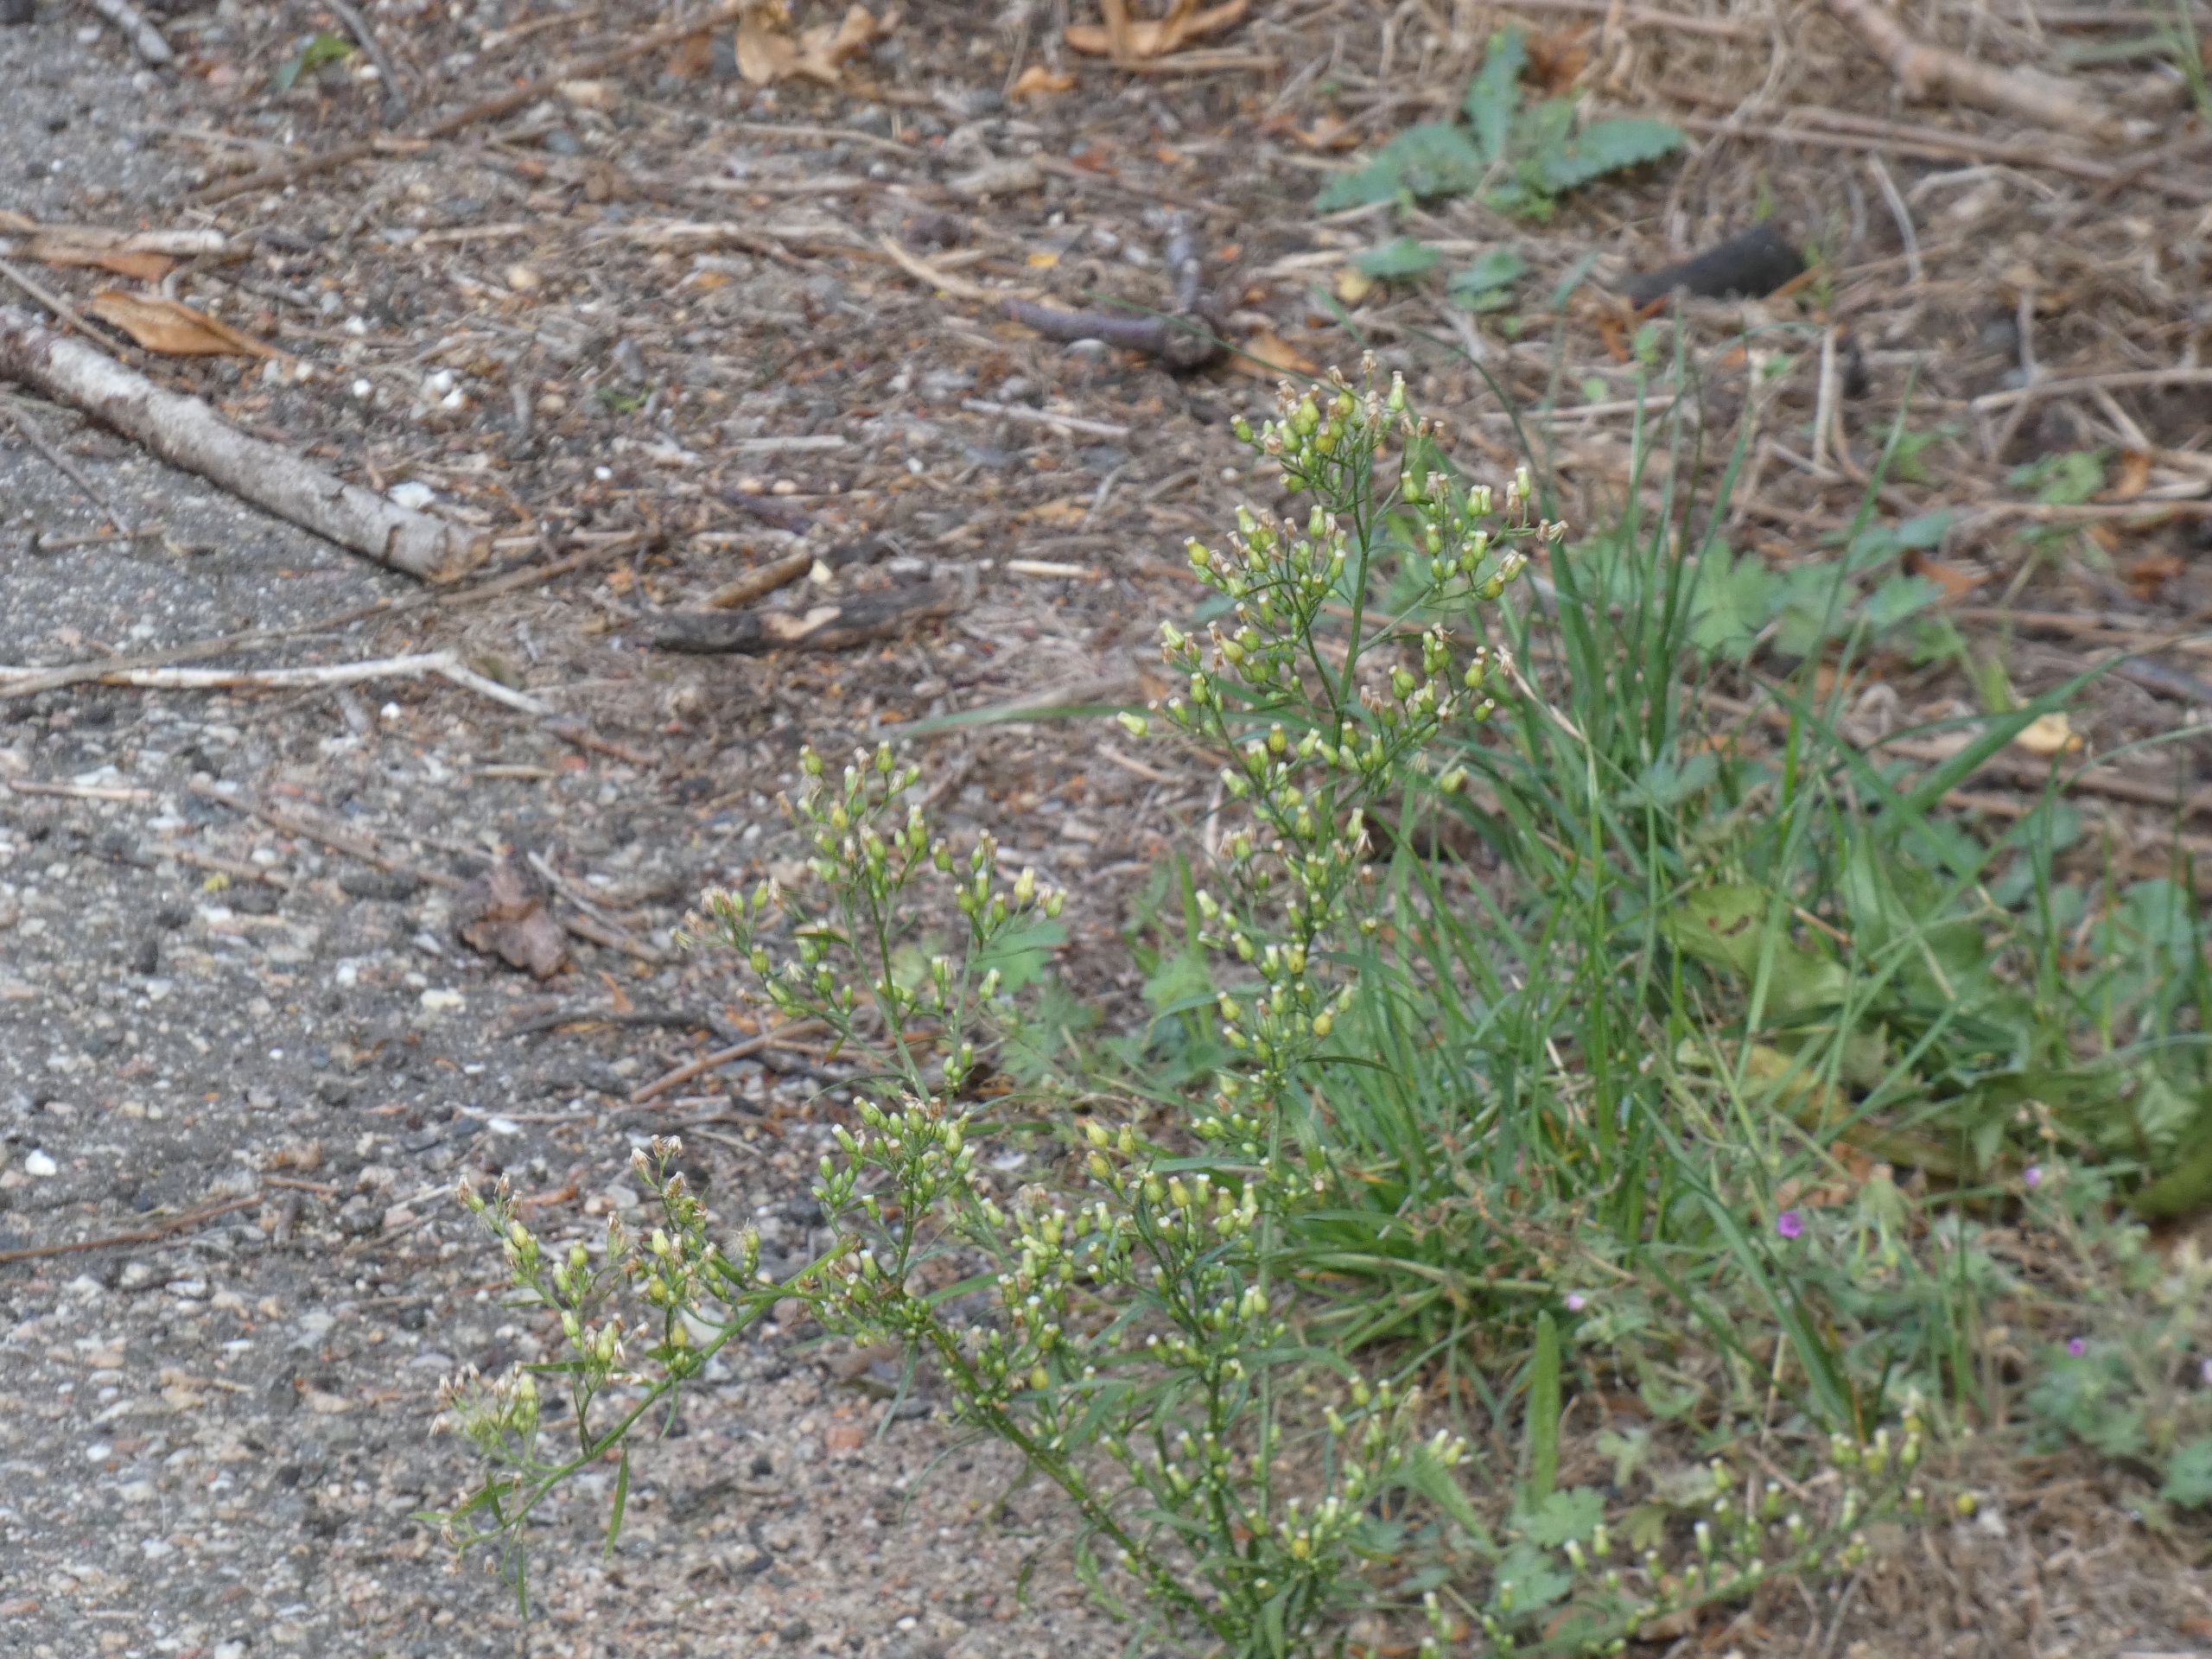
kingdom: Plantae
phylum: Tracheophyta
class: Magnoliopsida
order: Asterales
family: Asteraceae
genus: Erigeron
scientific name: Erigeron canadensis
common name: Kanadisk bakkestjerne
